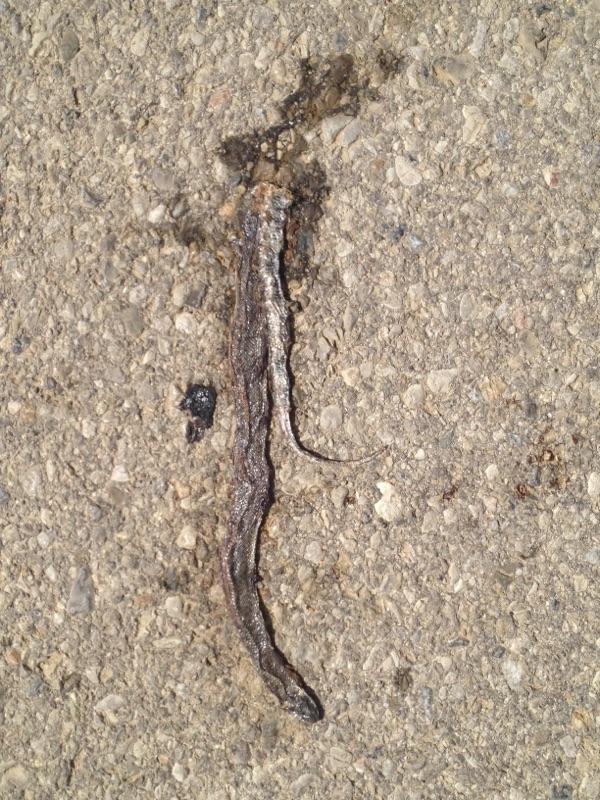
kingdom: Animalia
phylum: Chordata
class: Squamata
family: Colubridae
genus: Natrix
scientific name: Natrix natrix
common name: Grass snake
